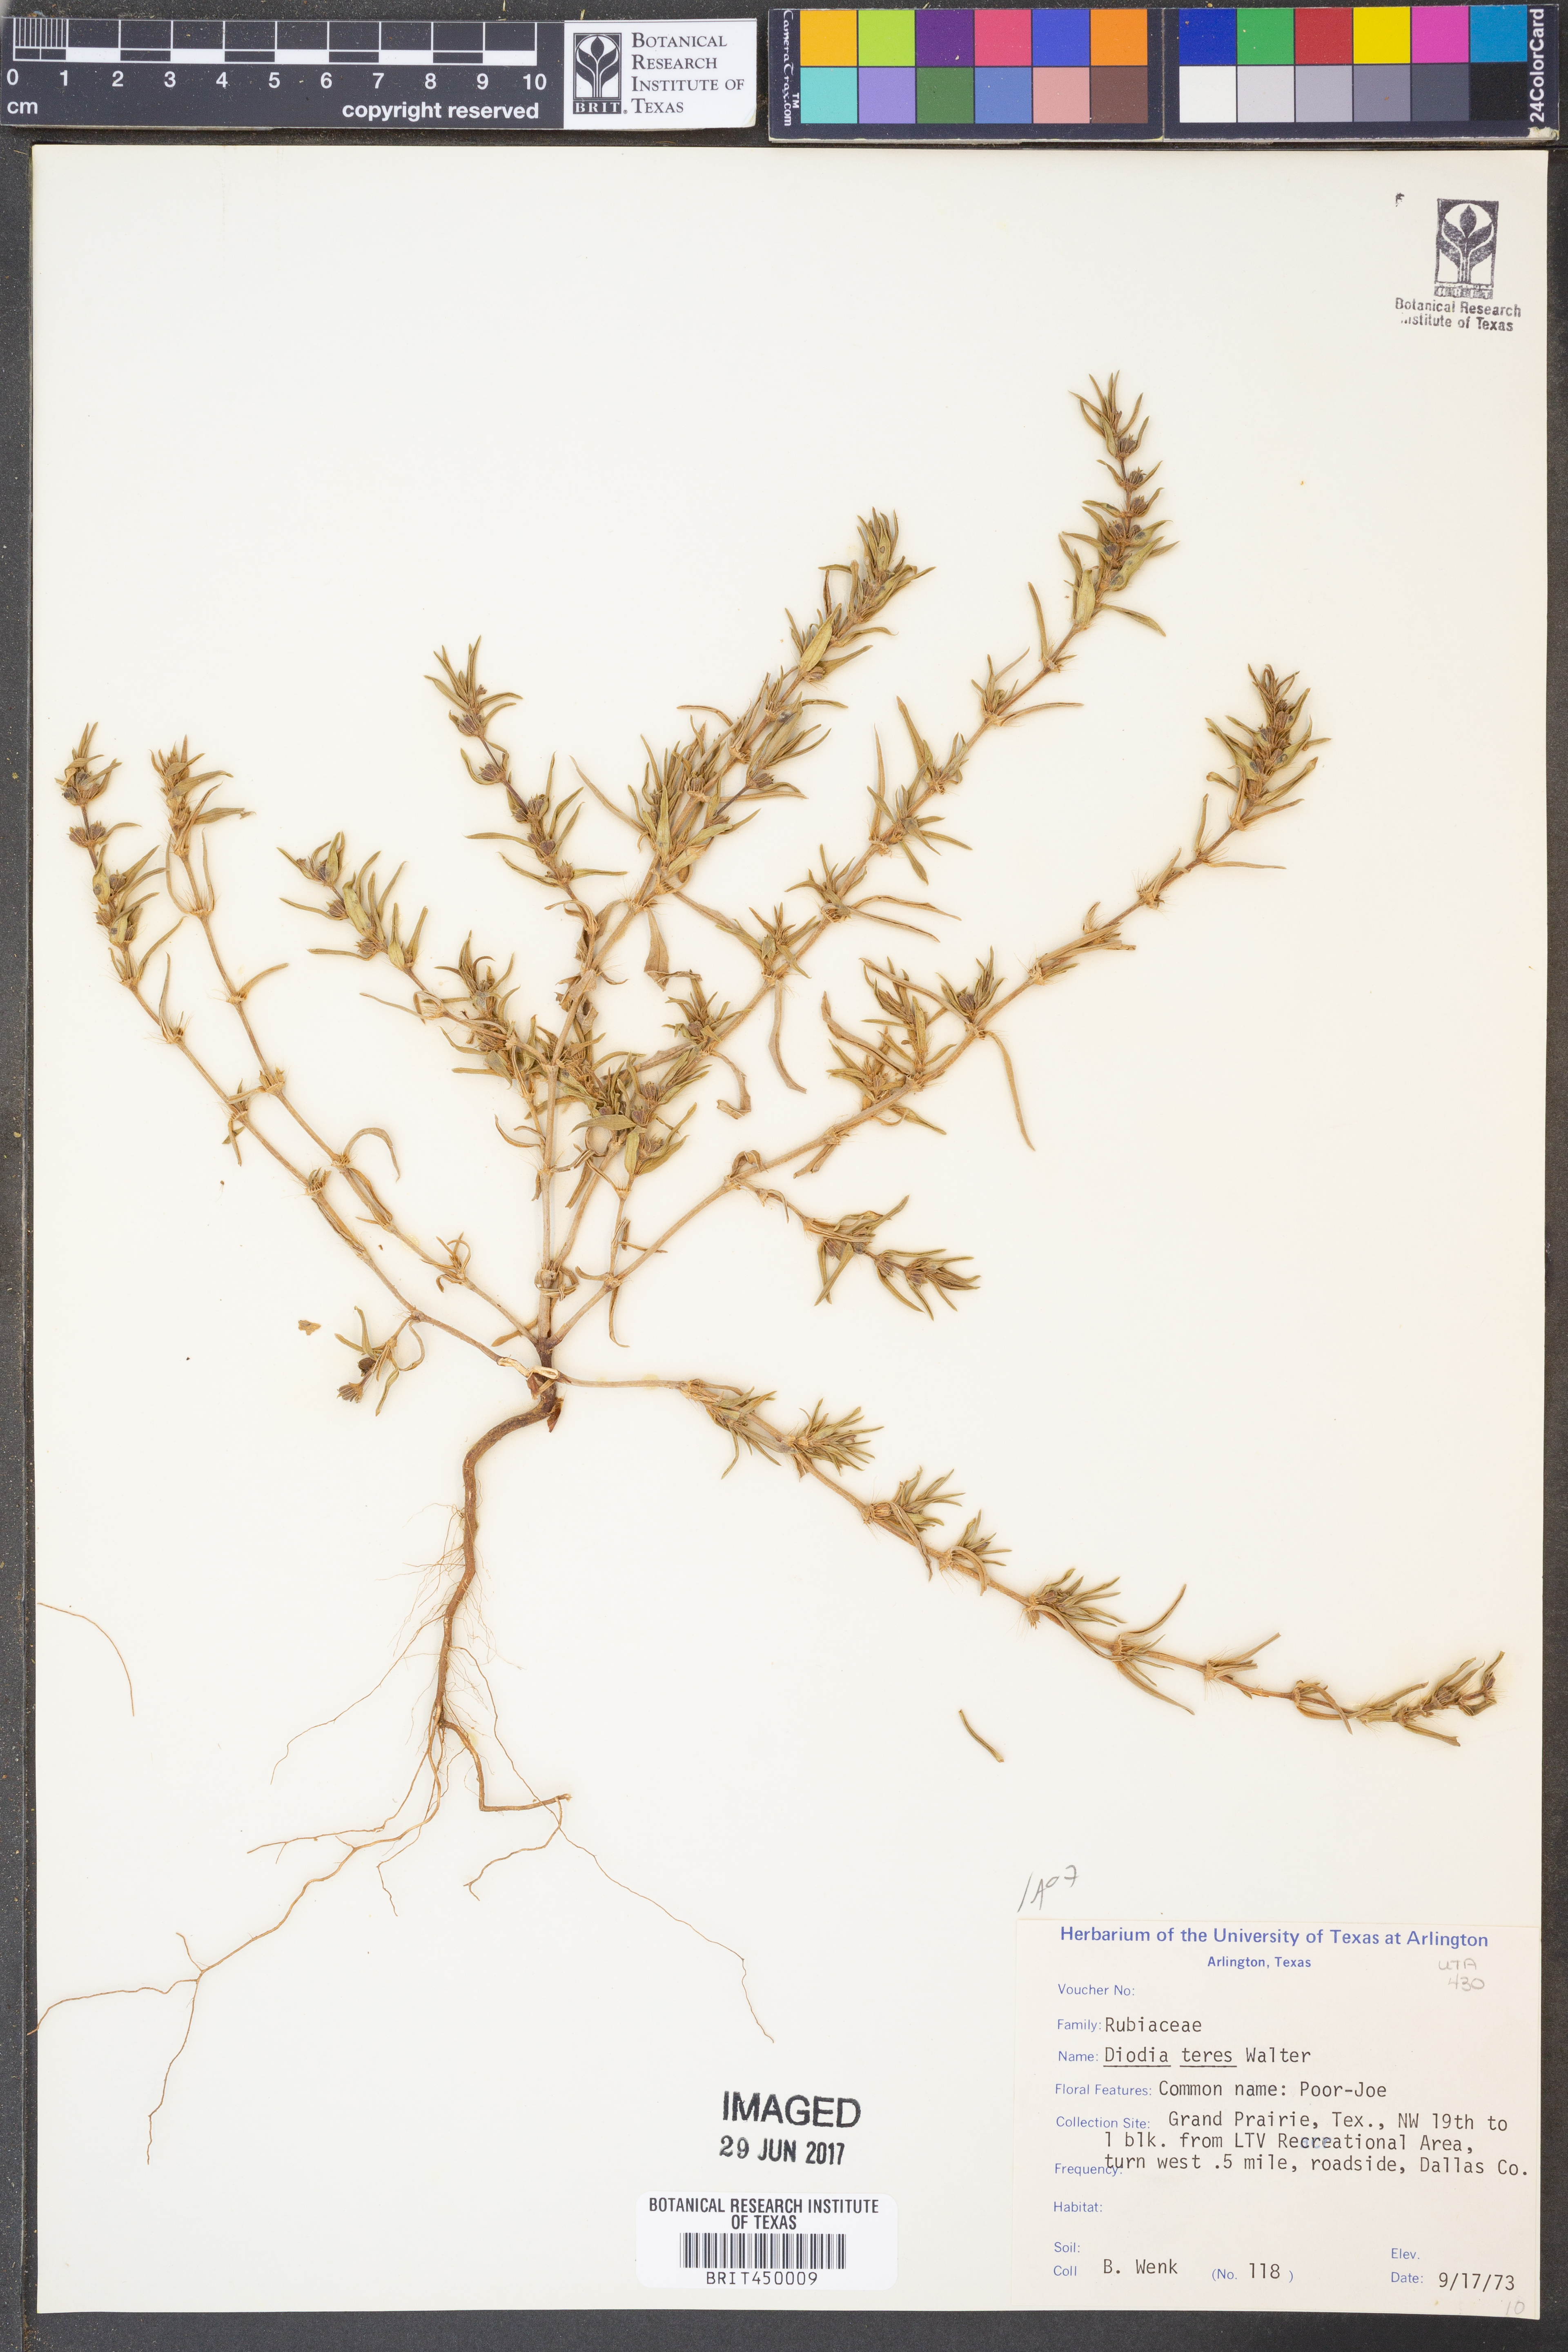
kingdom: Plantae
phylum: Tracheophyta
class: Magnoliopsida
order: Gentianales
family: Rubiaceae
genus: Hexasepalum
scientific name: Hexasepalum teres
